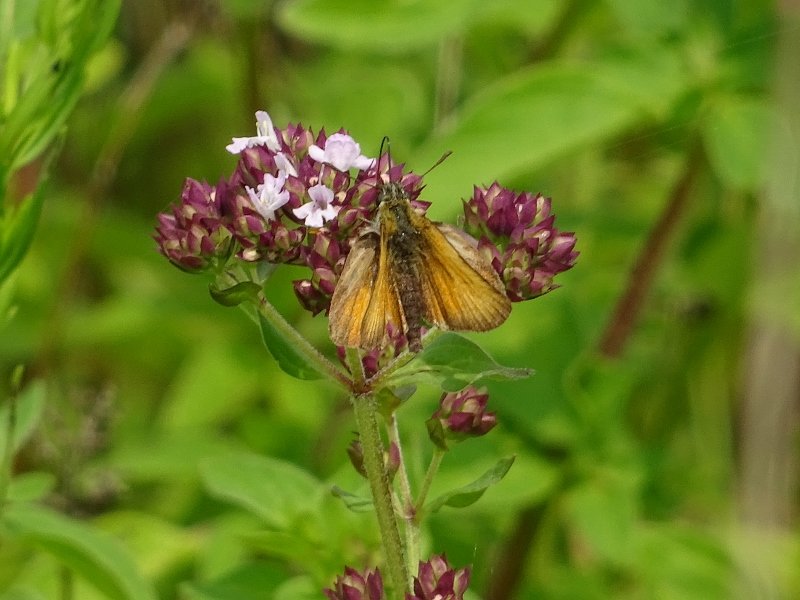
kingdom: Animalia
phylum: Arthropoda
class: Insecta
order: Lepidoptera
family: Hesperiidae
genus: Thymelicus
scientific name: Thymelicus lineola
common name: European Skipper
